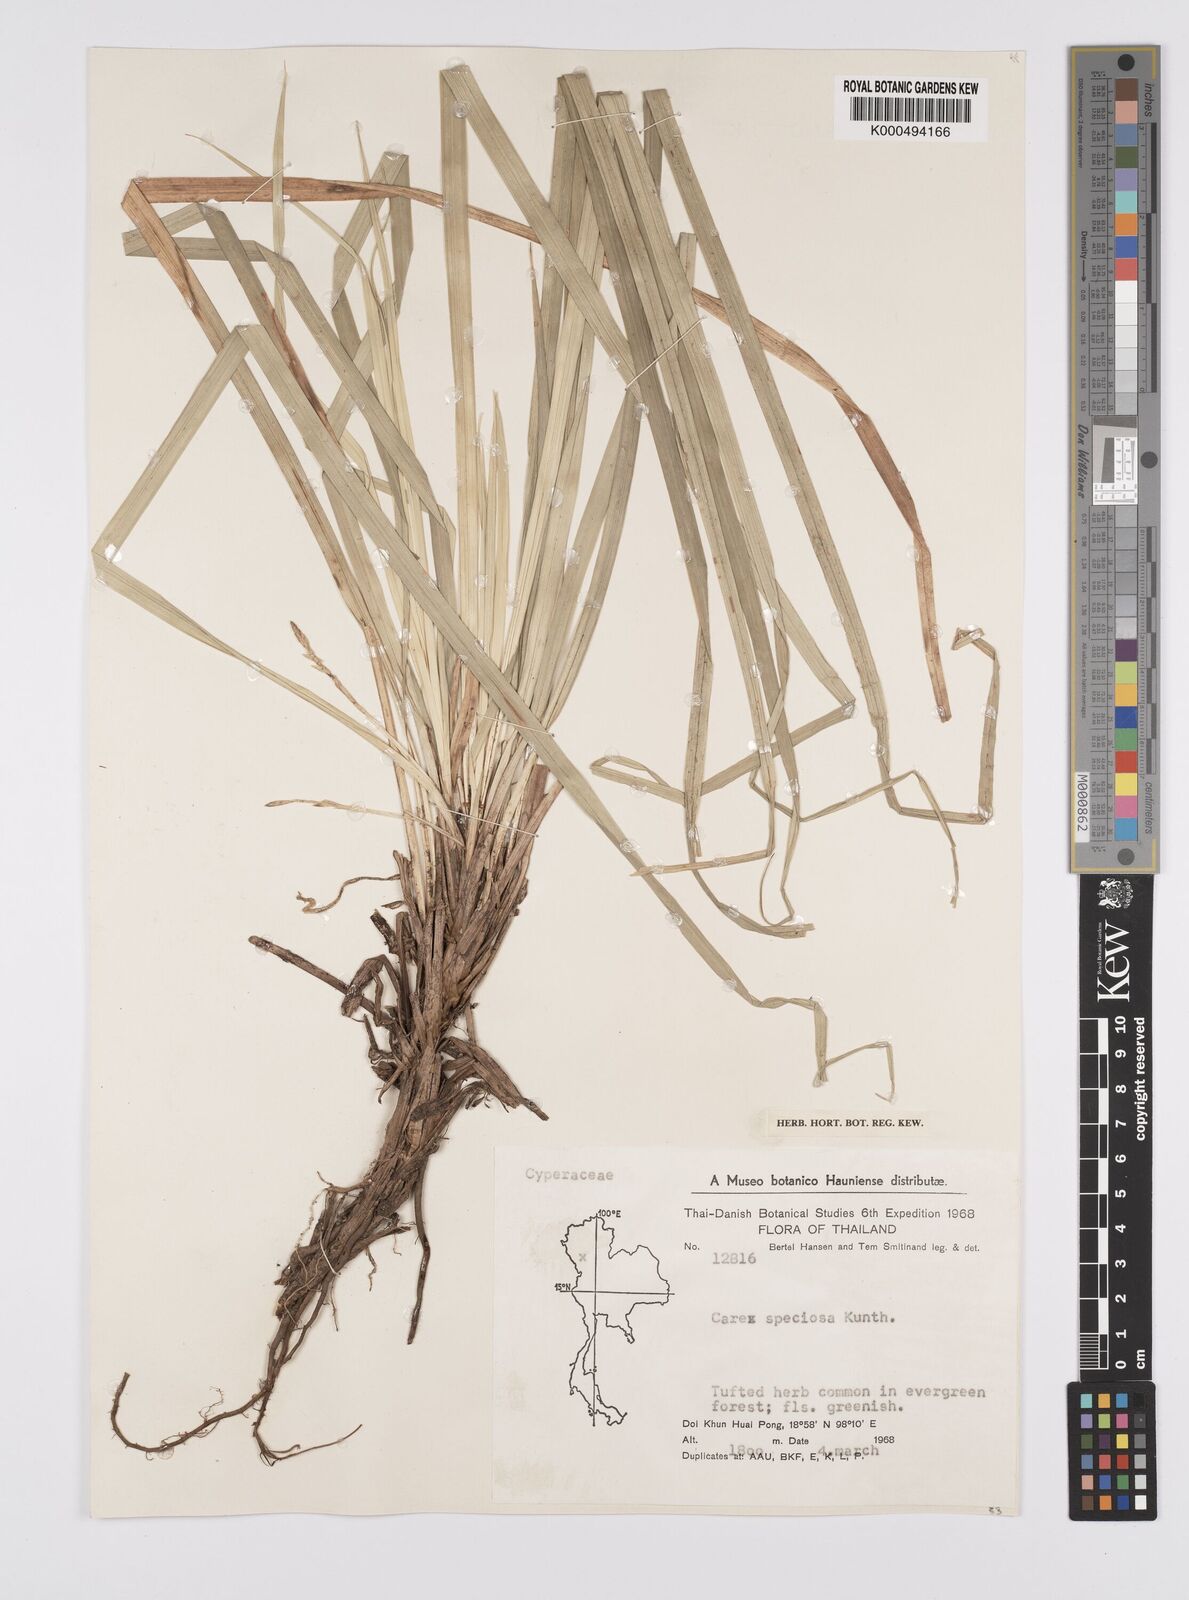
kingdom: Plantae
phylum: Tracheophyta
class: Liliopsida
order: Poales
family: Cyperaceae
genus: Carex
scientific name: Carex speciosa
